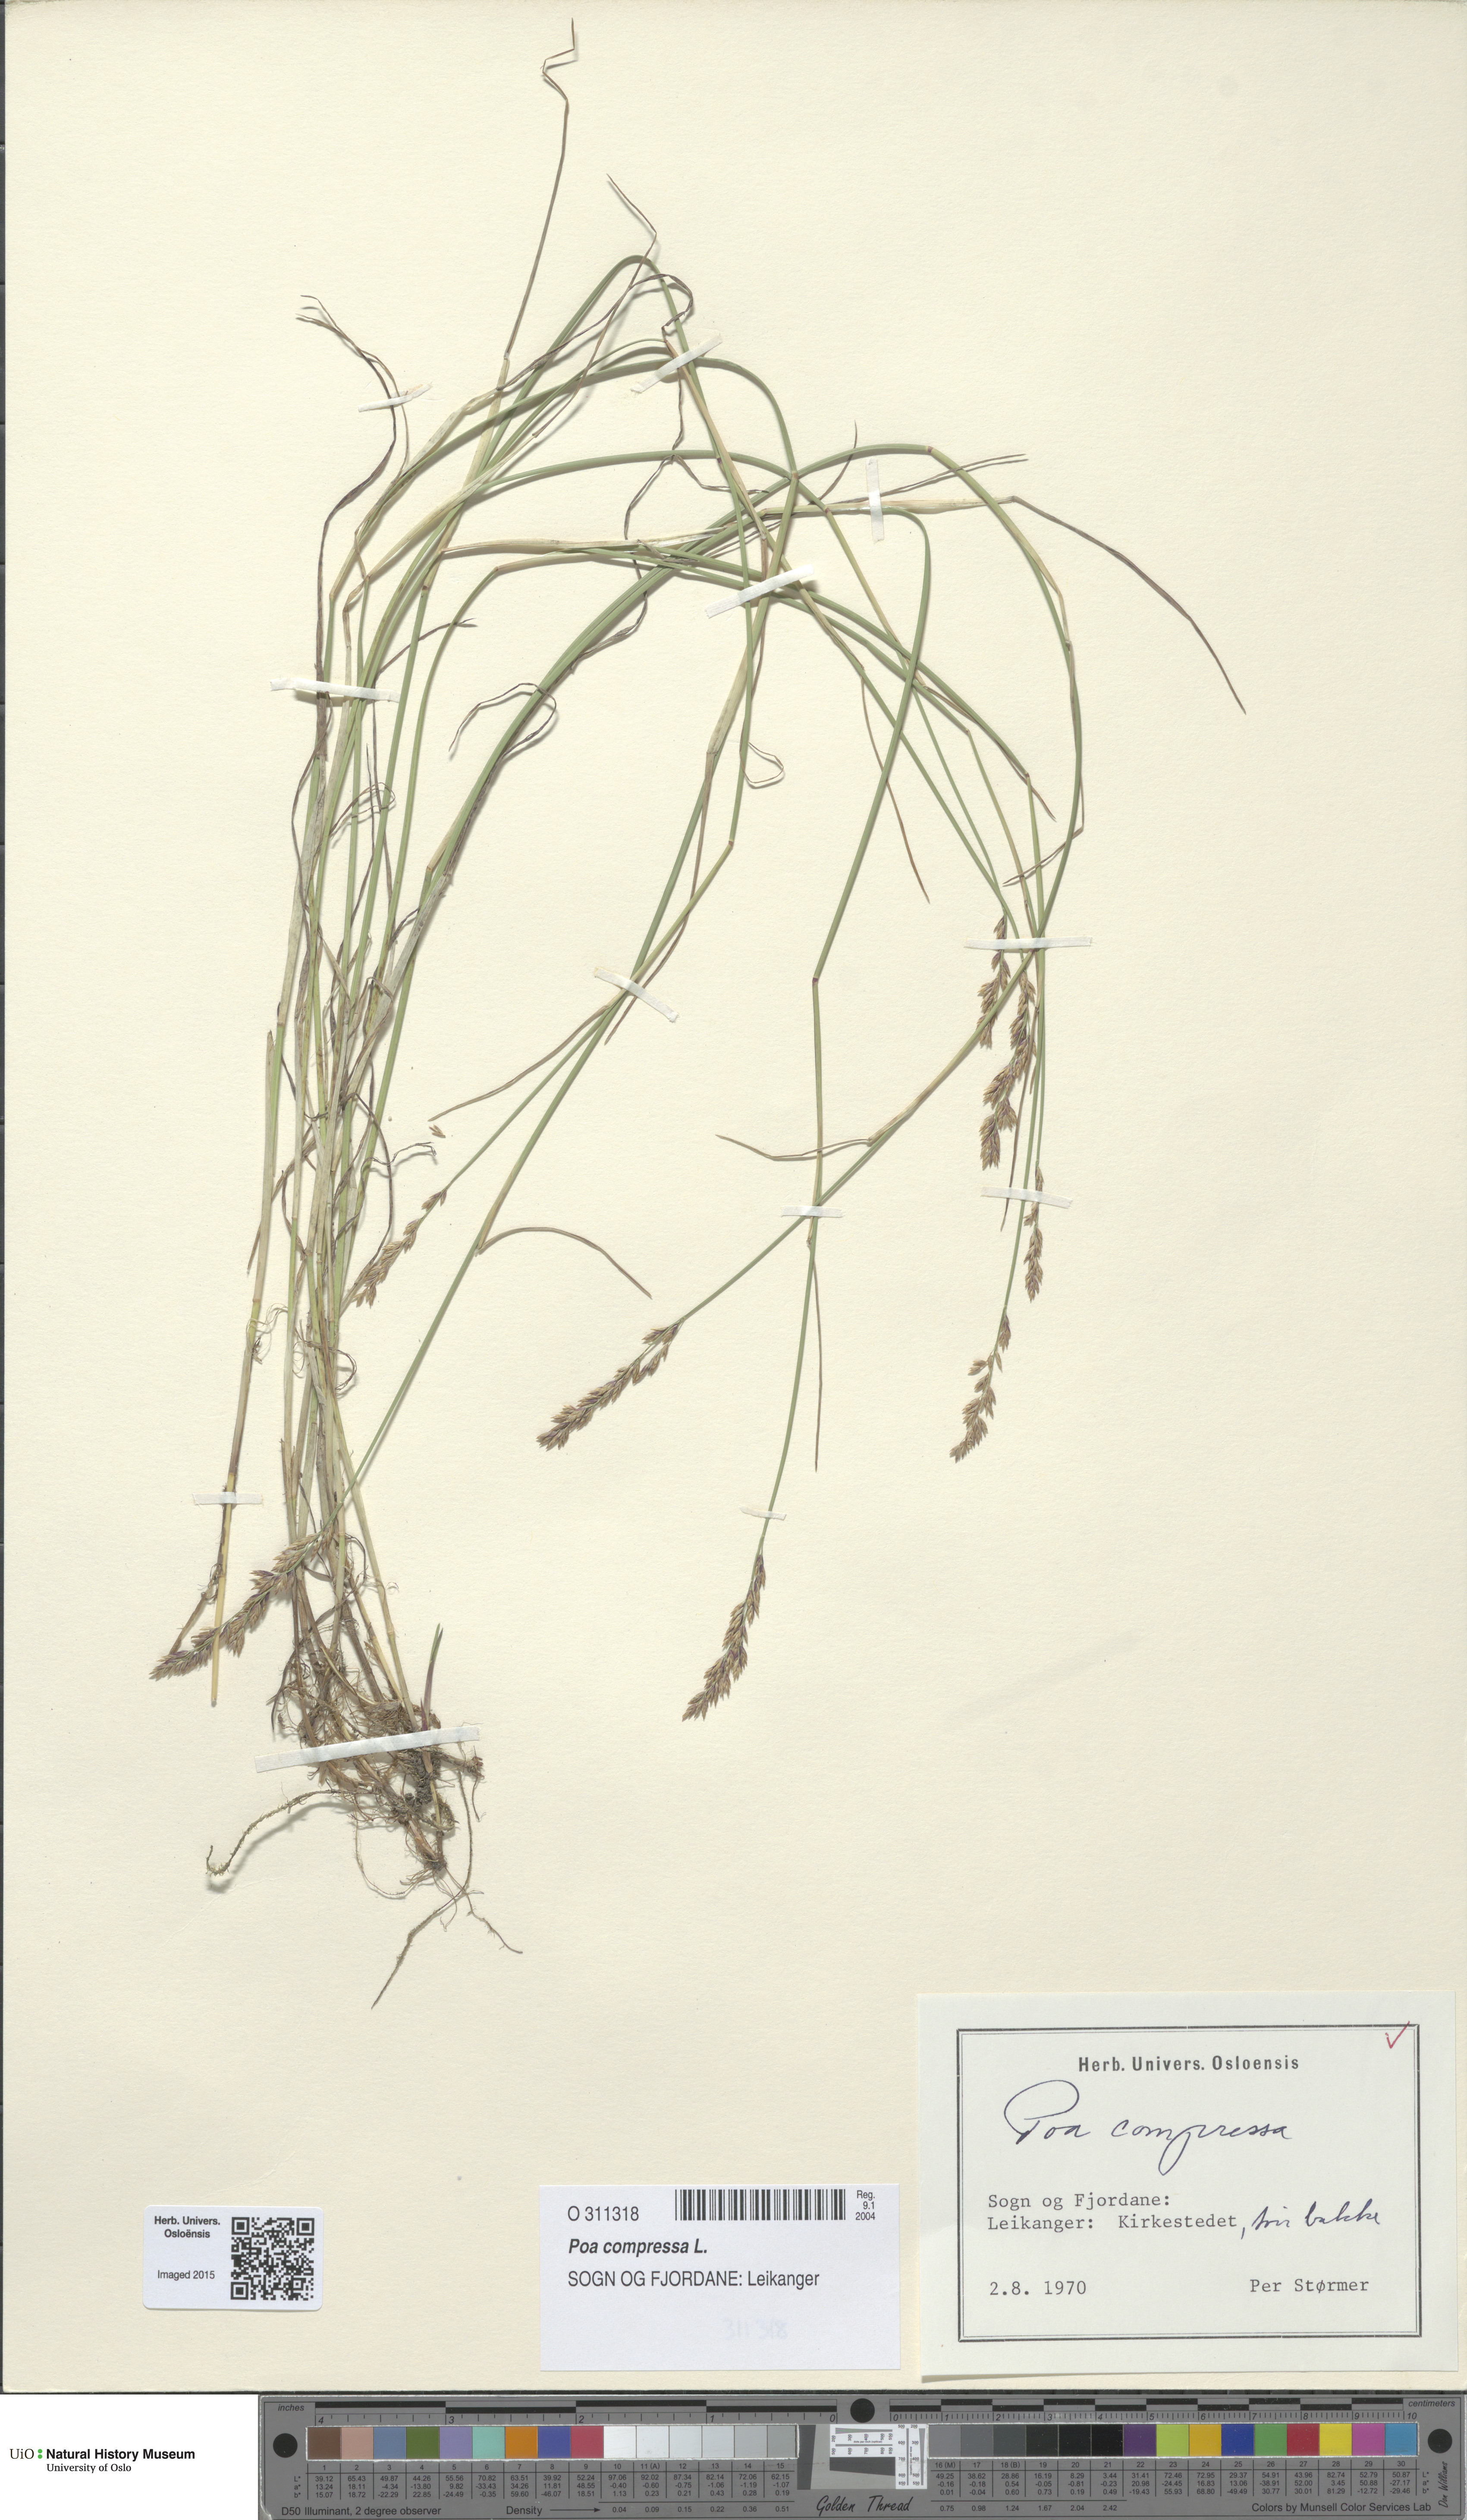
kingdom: Plantae
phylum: Tracheophyta
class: Liliopsida
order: Poales
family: Poaceae
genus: Poa
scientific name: Poa compressa
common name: Canada bluegrass
